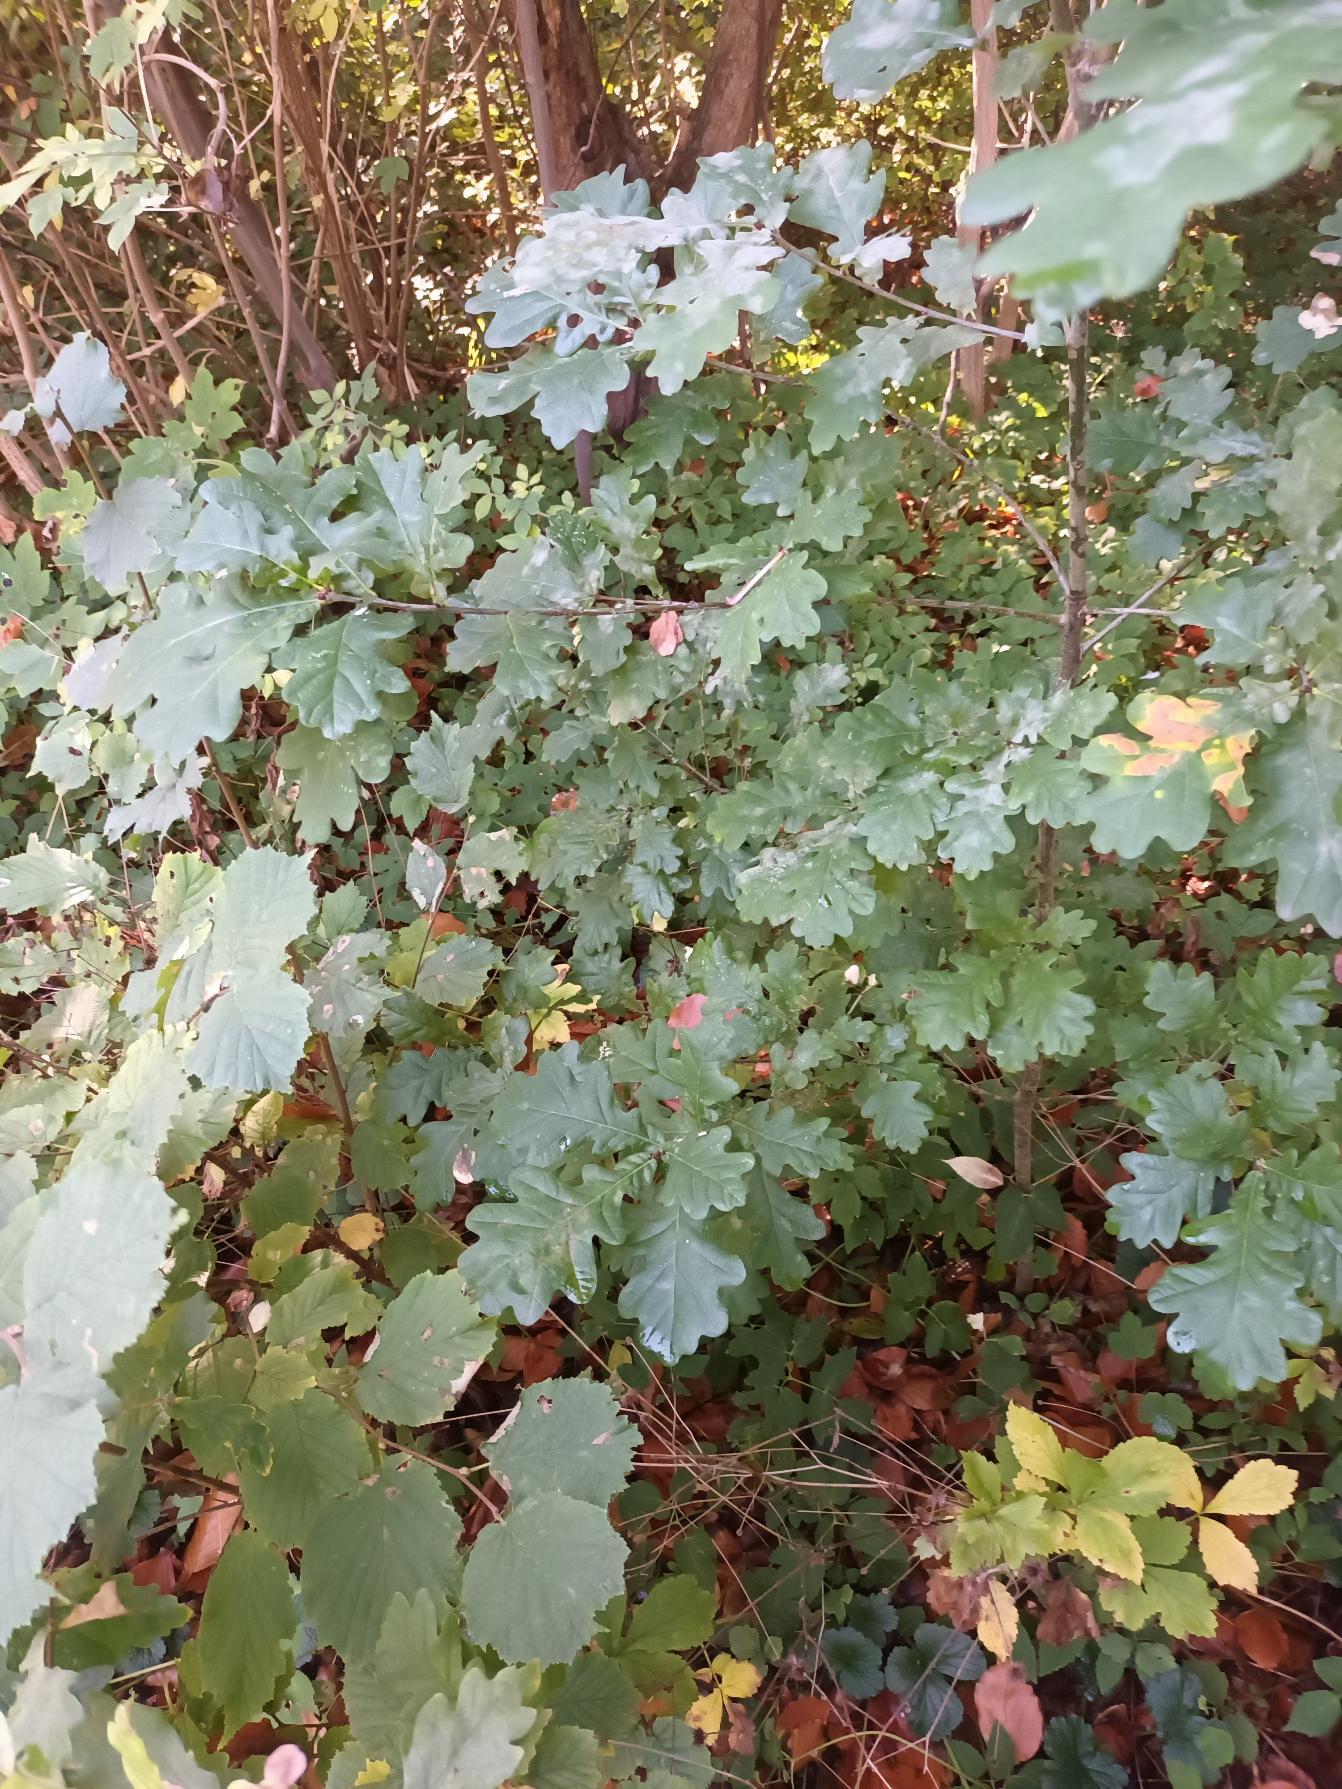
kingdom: Plantae
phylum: Tracheophyta
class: Magnoliopsida
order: Fagales
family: Fagaceae
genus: Quercus
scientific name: Quercus robur
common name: Stilk-eg/almindelig eg
